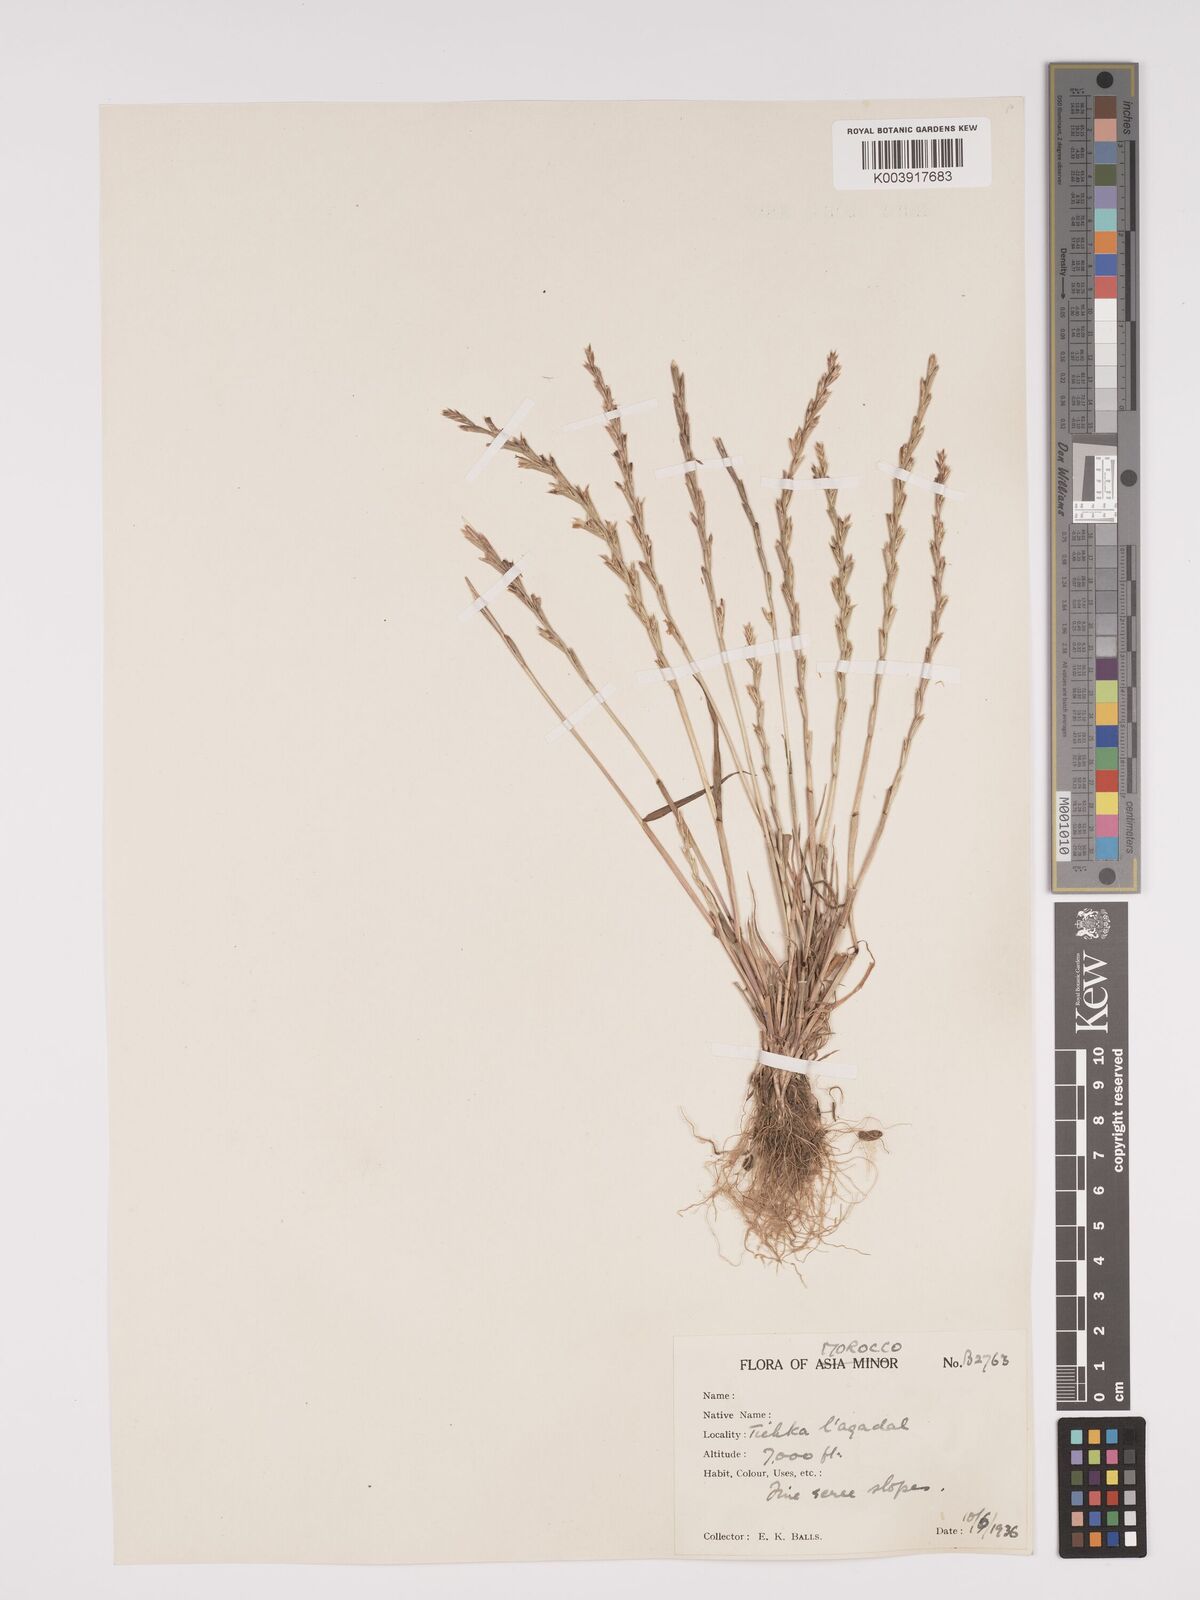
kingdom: Plantae
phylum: Tracheophyta
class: Liliopsida
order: Poales
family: Poaceae
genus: Lolium
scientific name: Lolium rigidum
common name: Wimmera ryegrass
